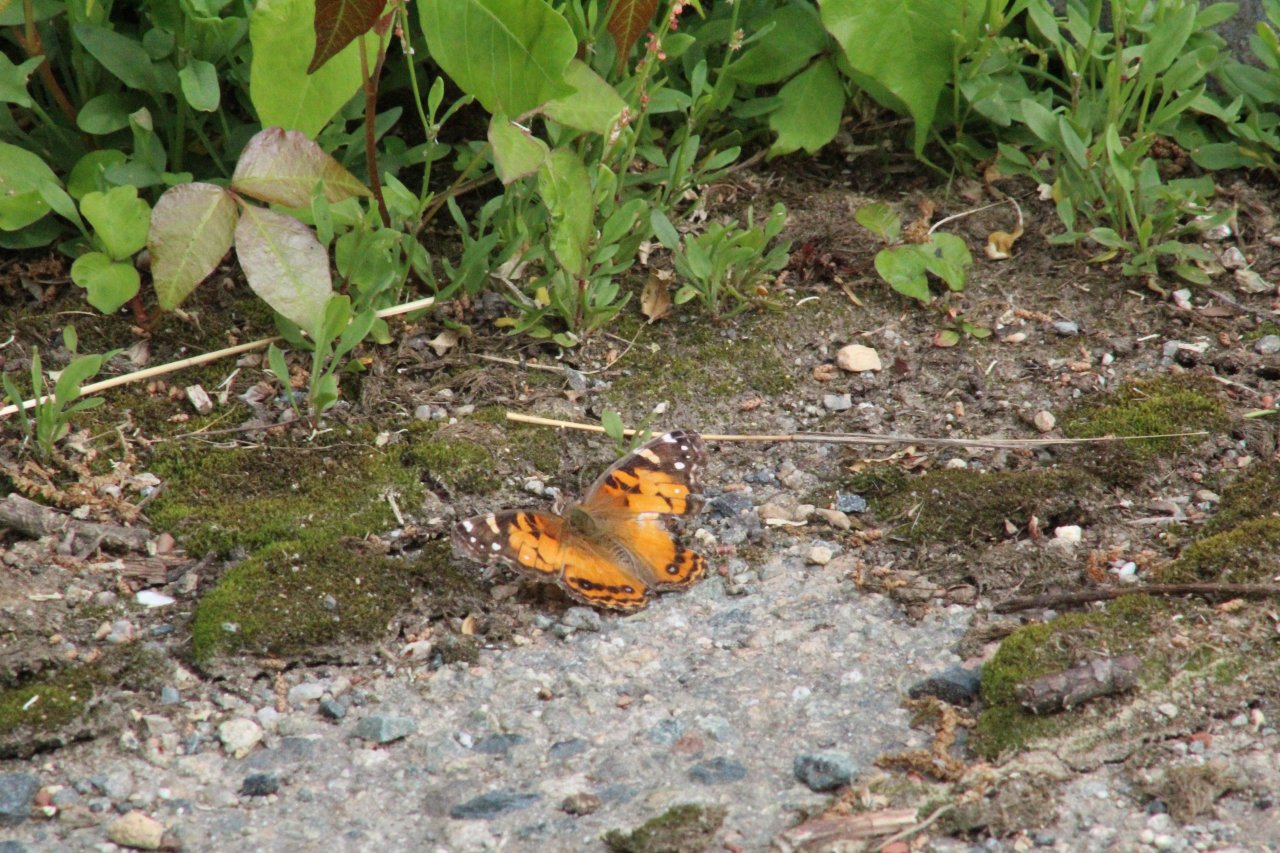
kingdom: Animalia
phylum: Arthropoda
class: Insecta
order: Lepidoptera
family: Nymphalidae
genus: Vanessa
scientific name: Vanessa virginiensis
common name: American Lady
